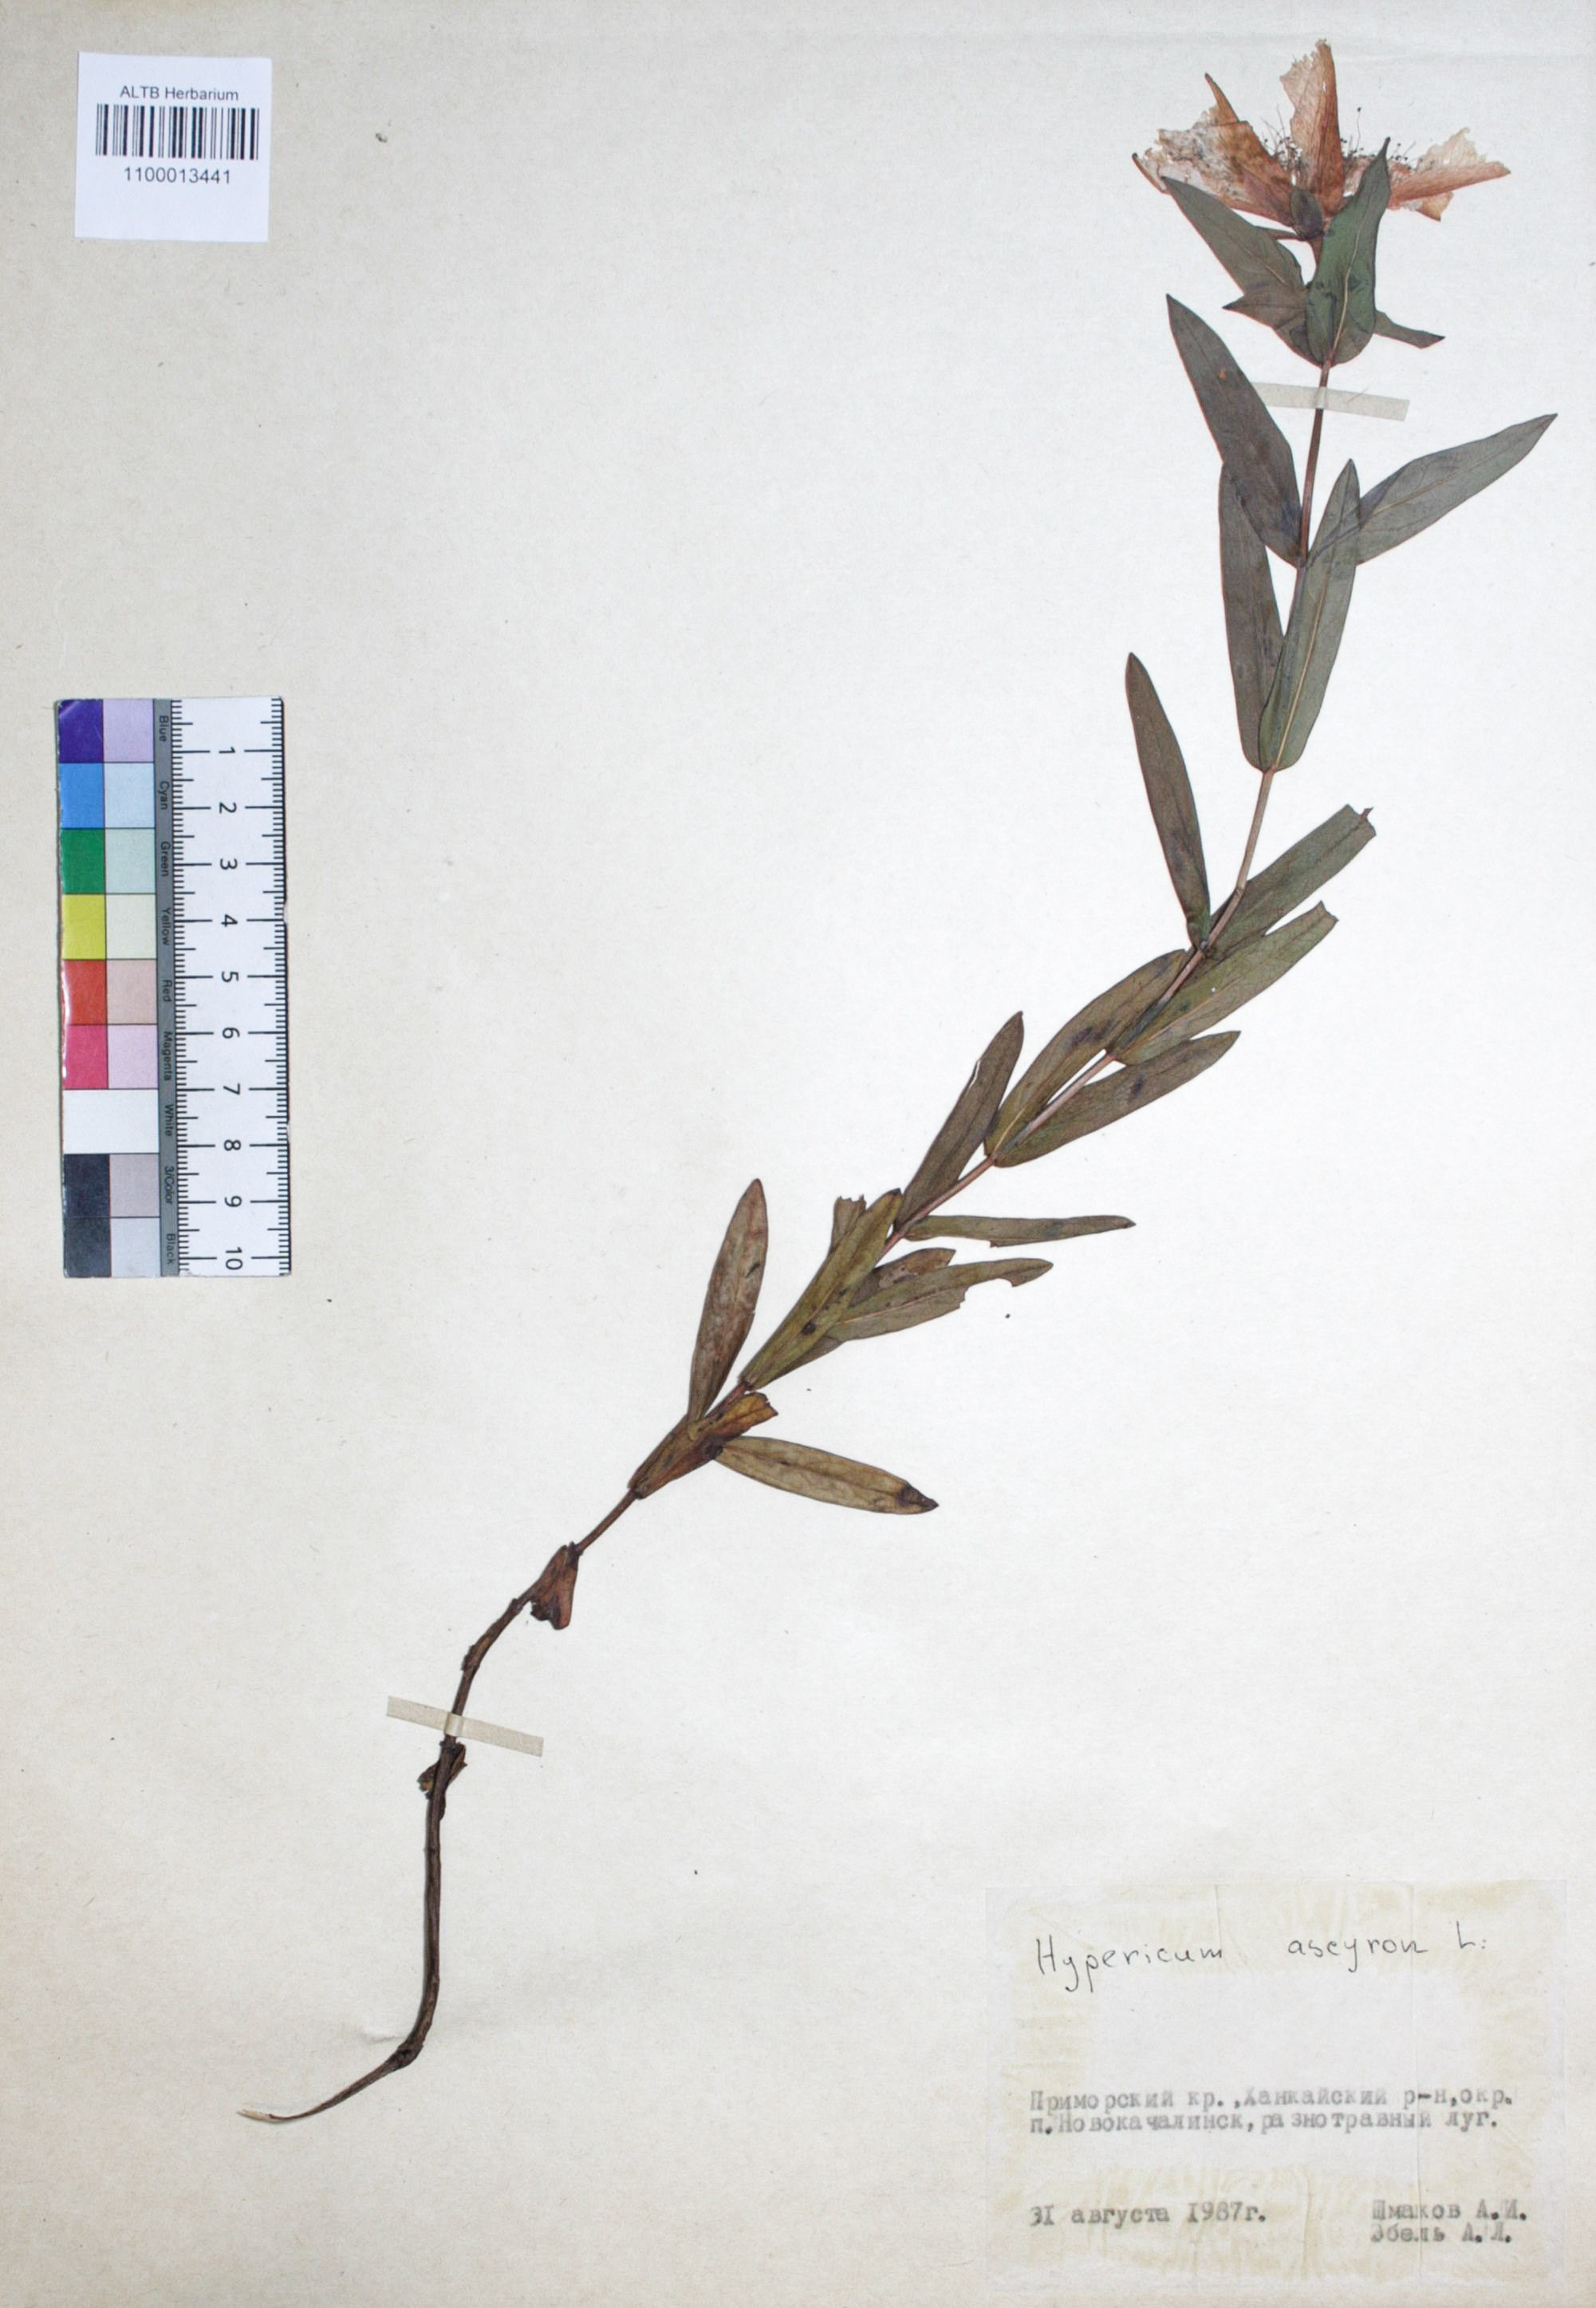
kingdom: Plantae
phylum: Tracheophyta
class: Magnoliopsida
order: Malpighiales
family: Hypericaceae
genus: Hypericum
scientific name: Hypericum ascyron
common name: Giant st. john's-wort
